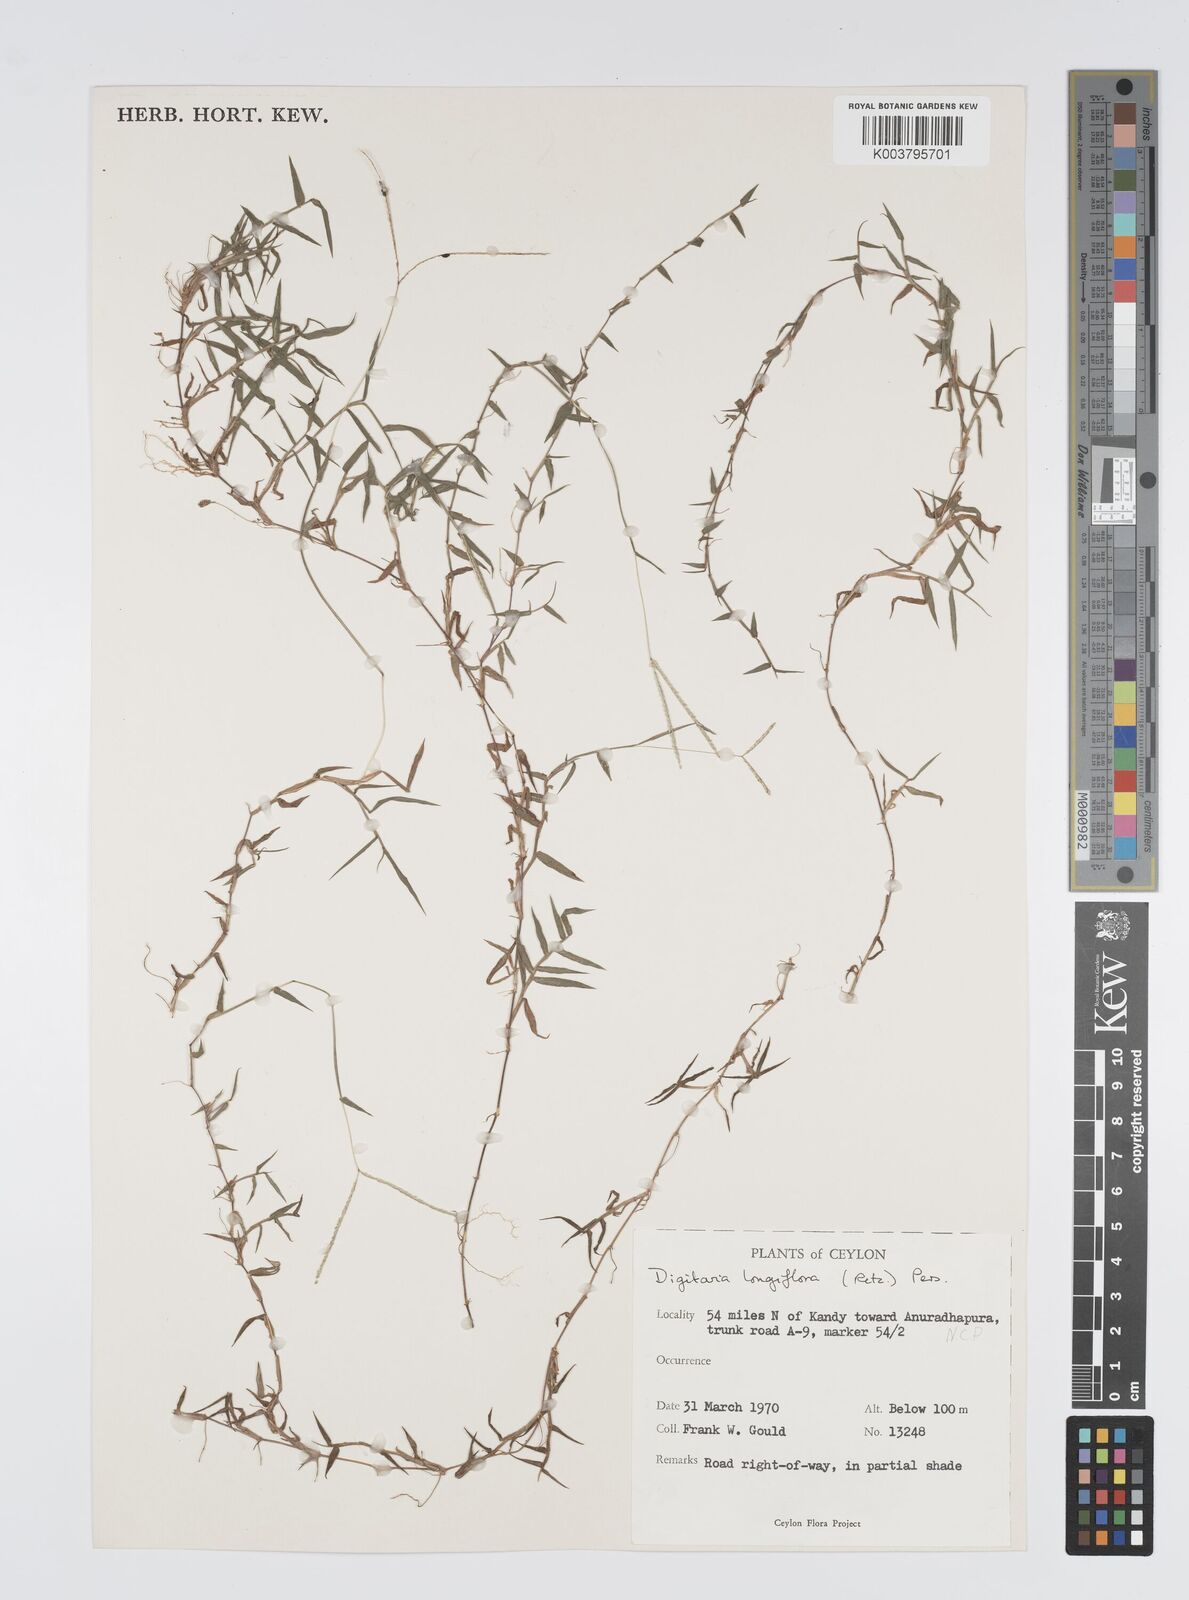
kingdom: Plantae
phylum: Tracheophyta
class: Liliopsida
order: Poales
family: Poaceae
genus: Digitaria
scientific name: Digitaria longiflora
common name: Wire crabgrass
